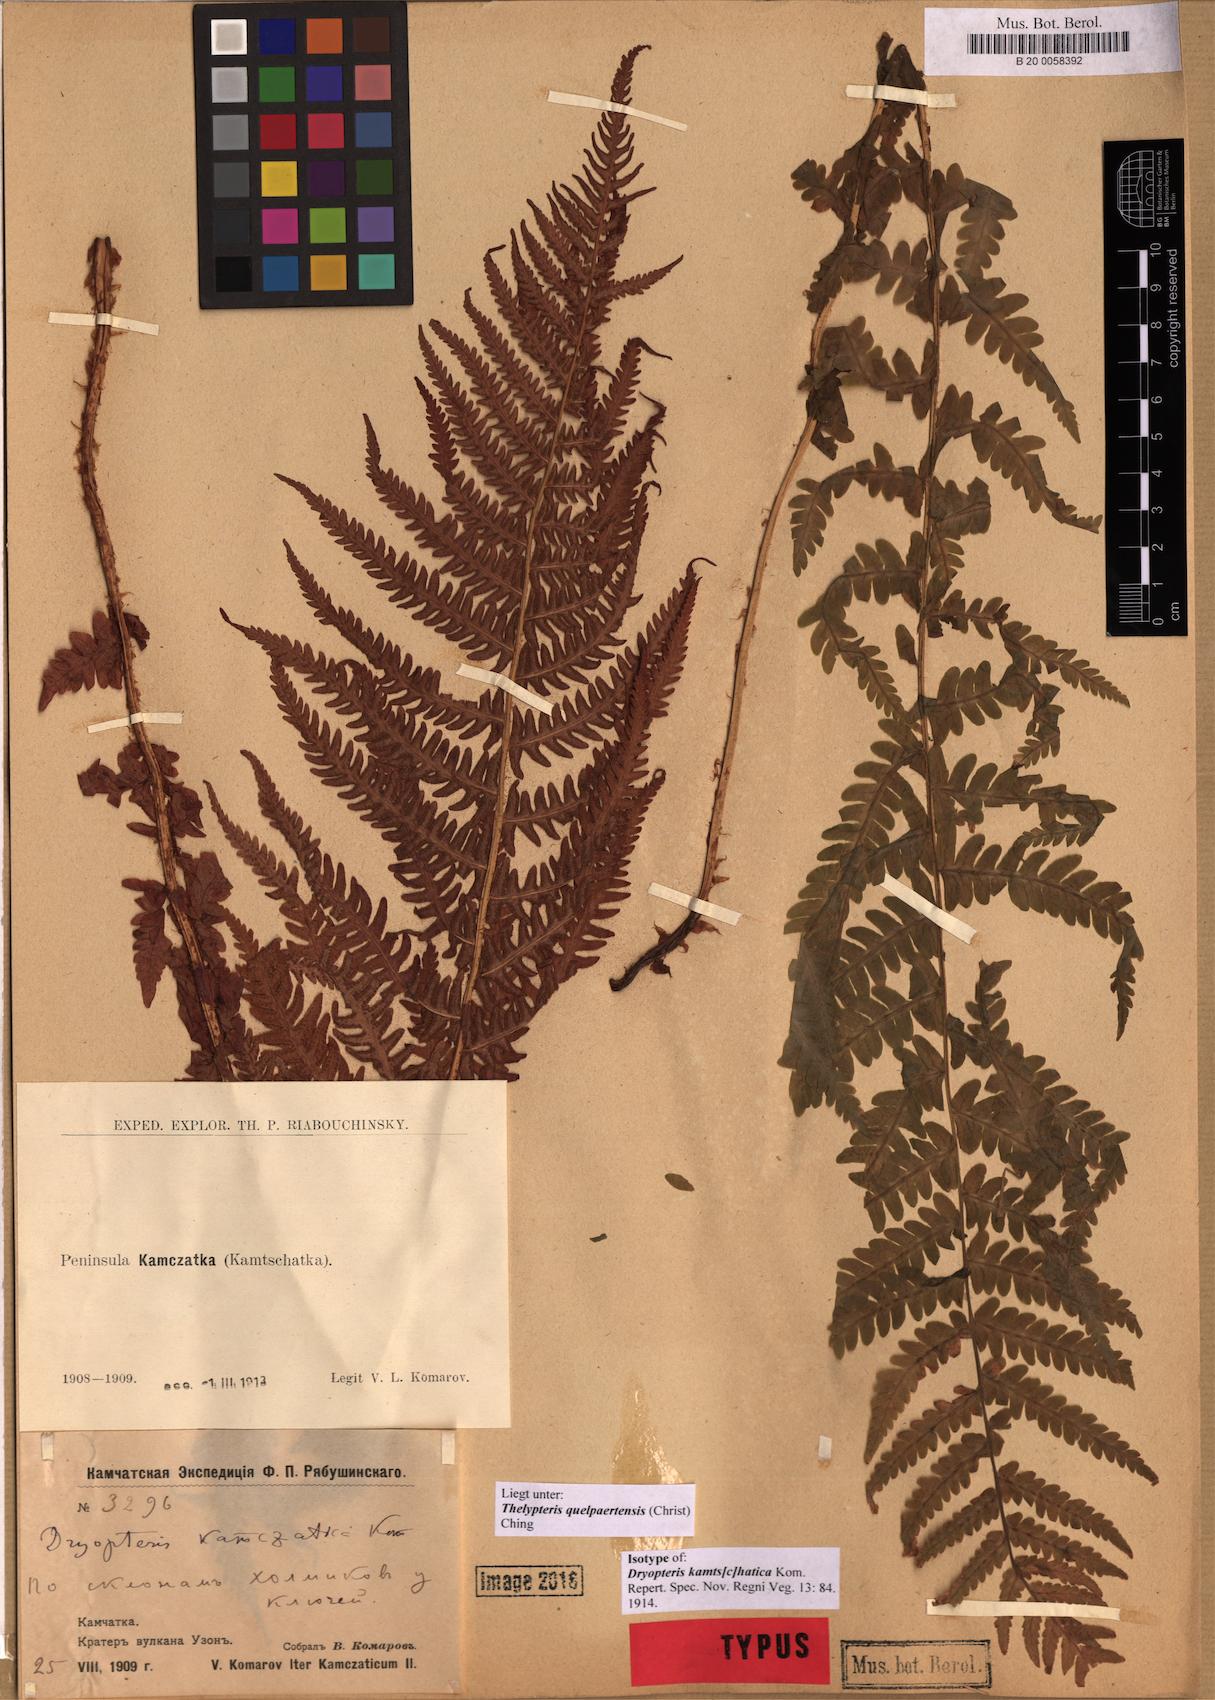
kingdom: Plantae
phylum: Tracheophyta
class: Polypodiopsida
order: Polypodiales
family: Thelypteridaceae
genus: Oreopteris
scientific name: Oreopteris quelpartensis
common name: Mountain fern
